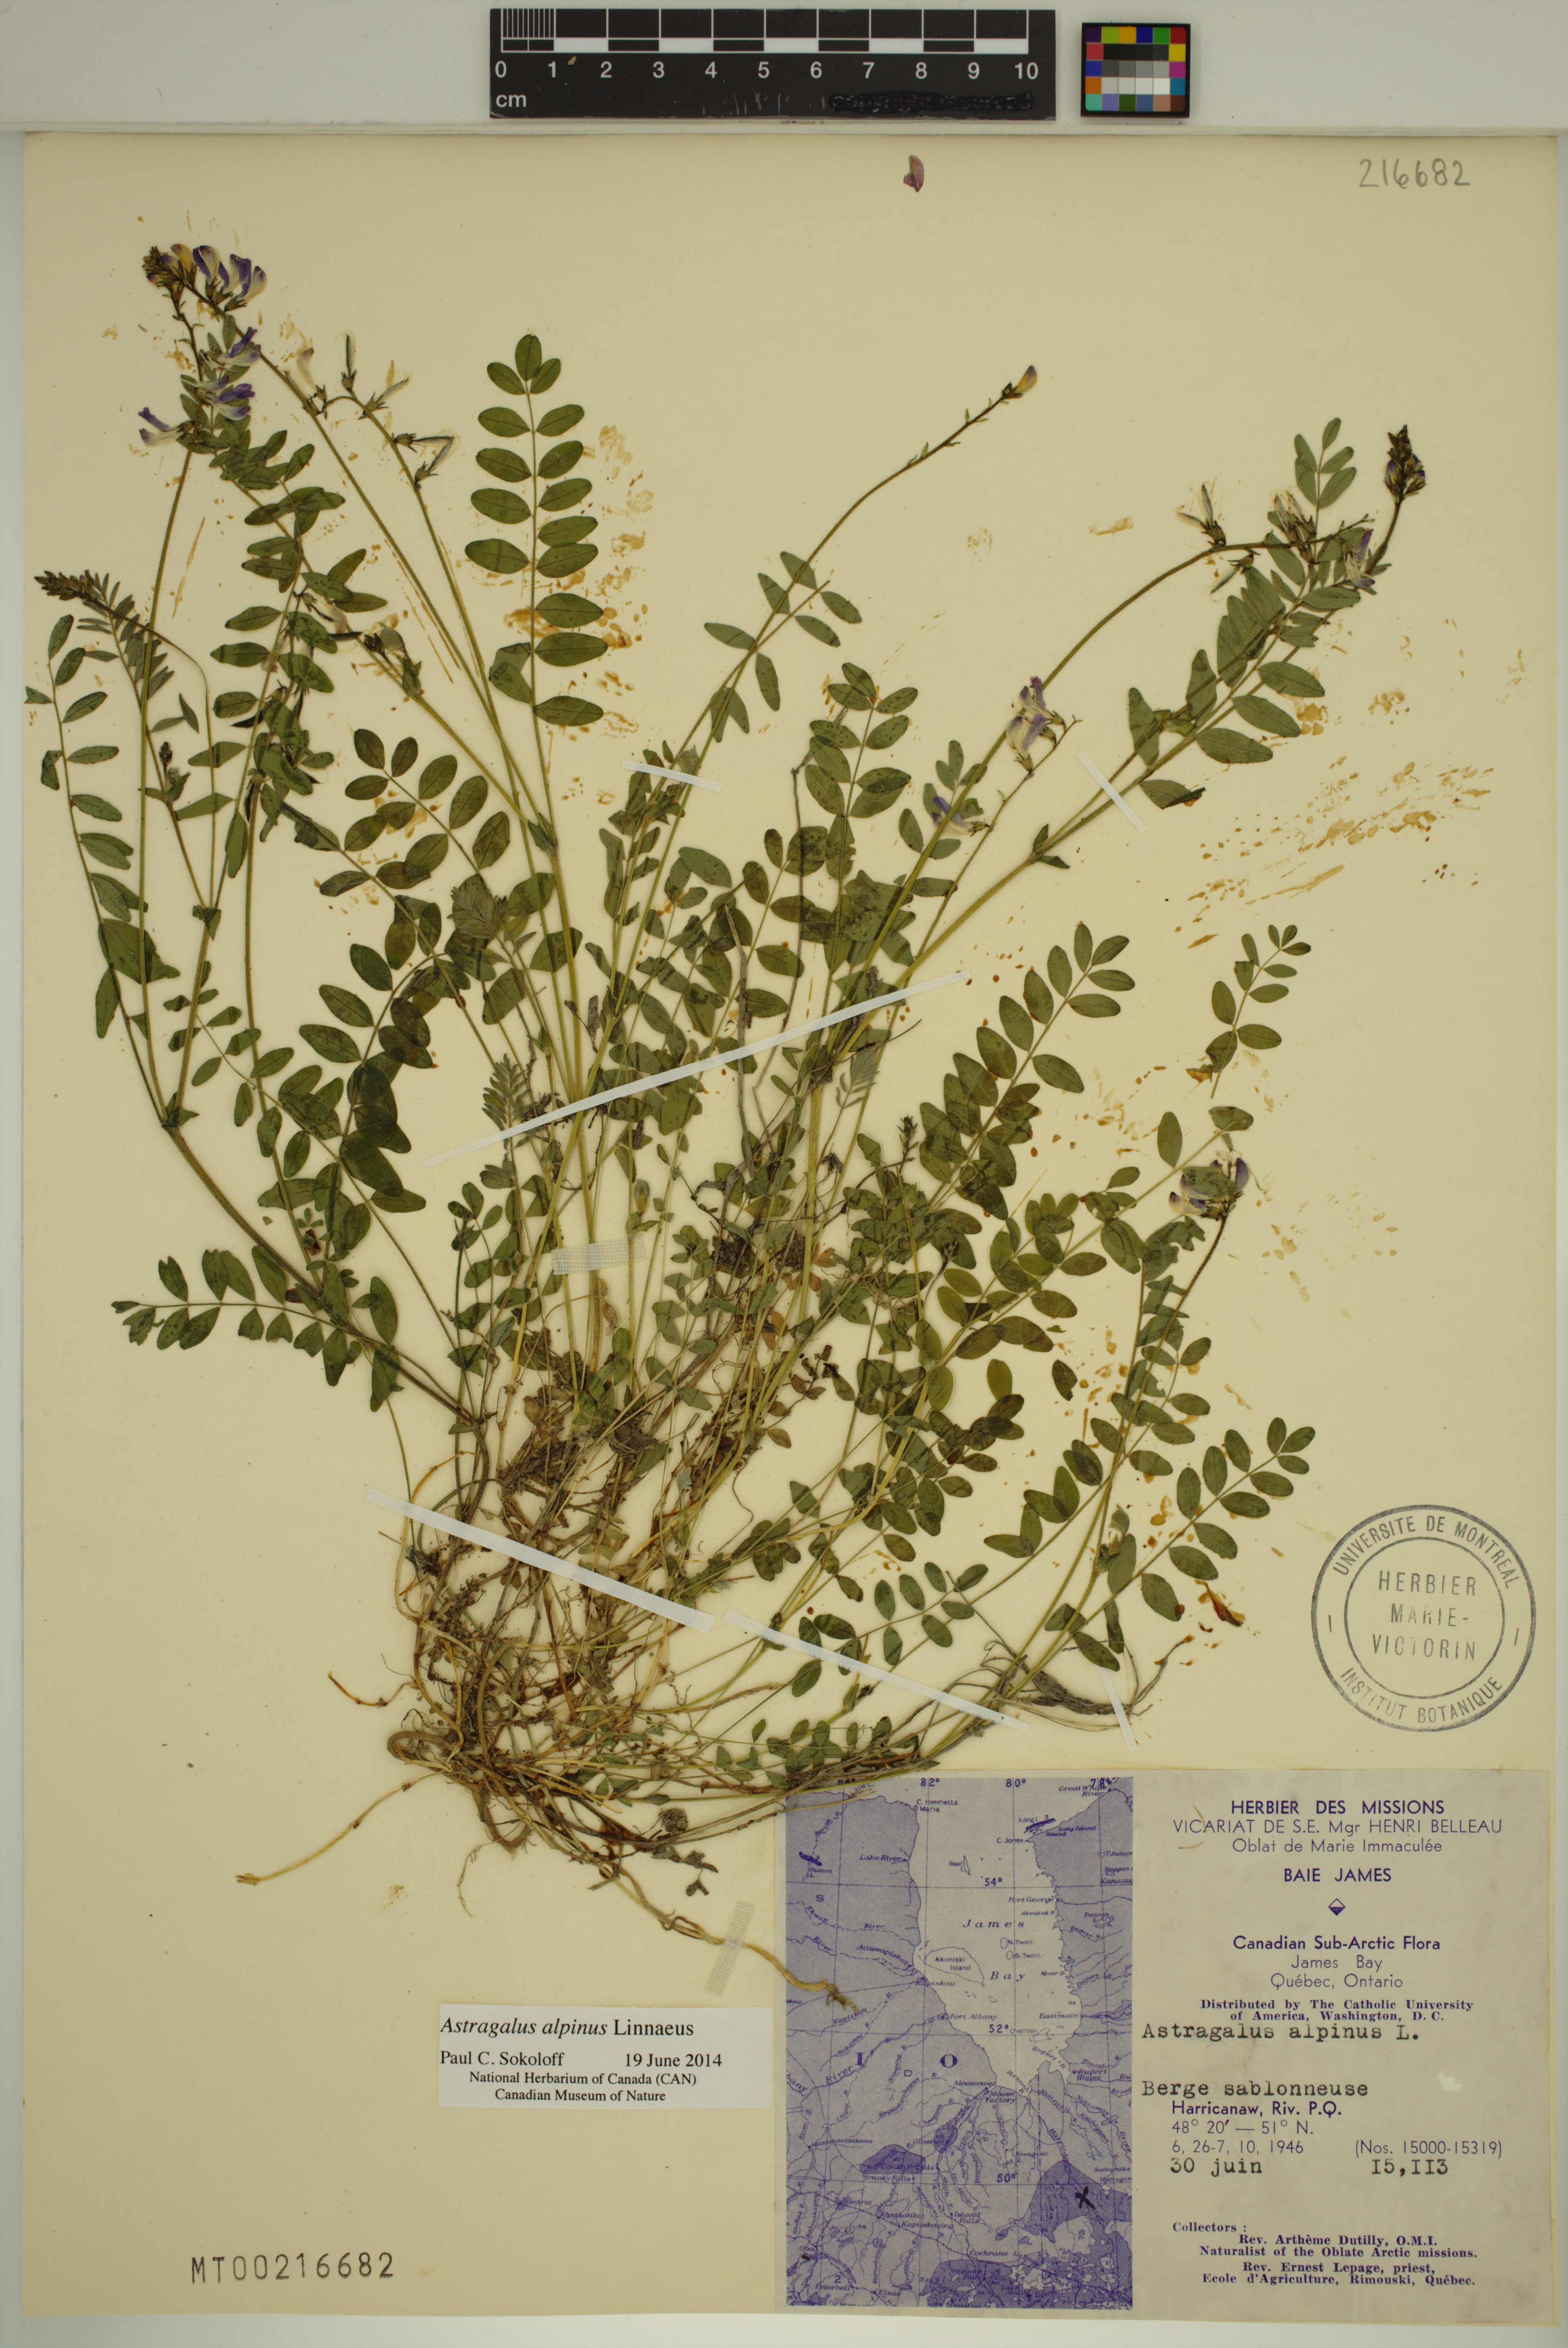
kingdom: Plantae
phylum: Tracheophyta
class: Magnoliopsida
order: Fabales
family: Fabaceae
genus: Astragalus
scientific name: Astragalus alpinus
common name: Alpine milk-vetch
